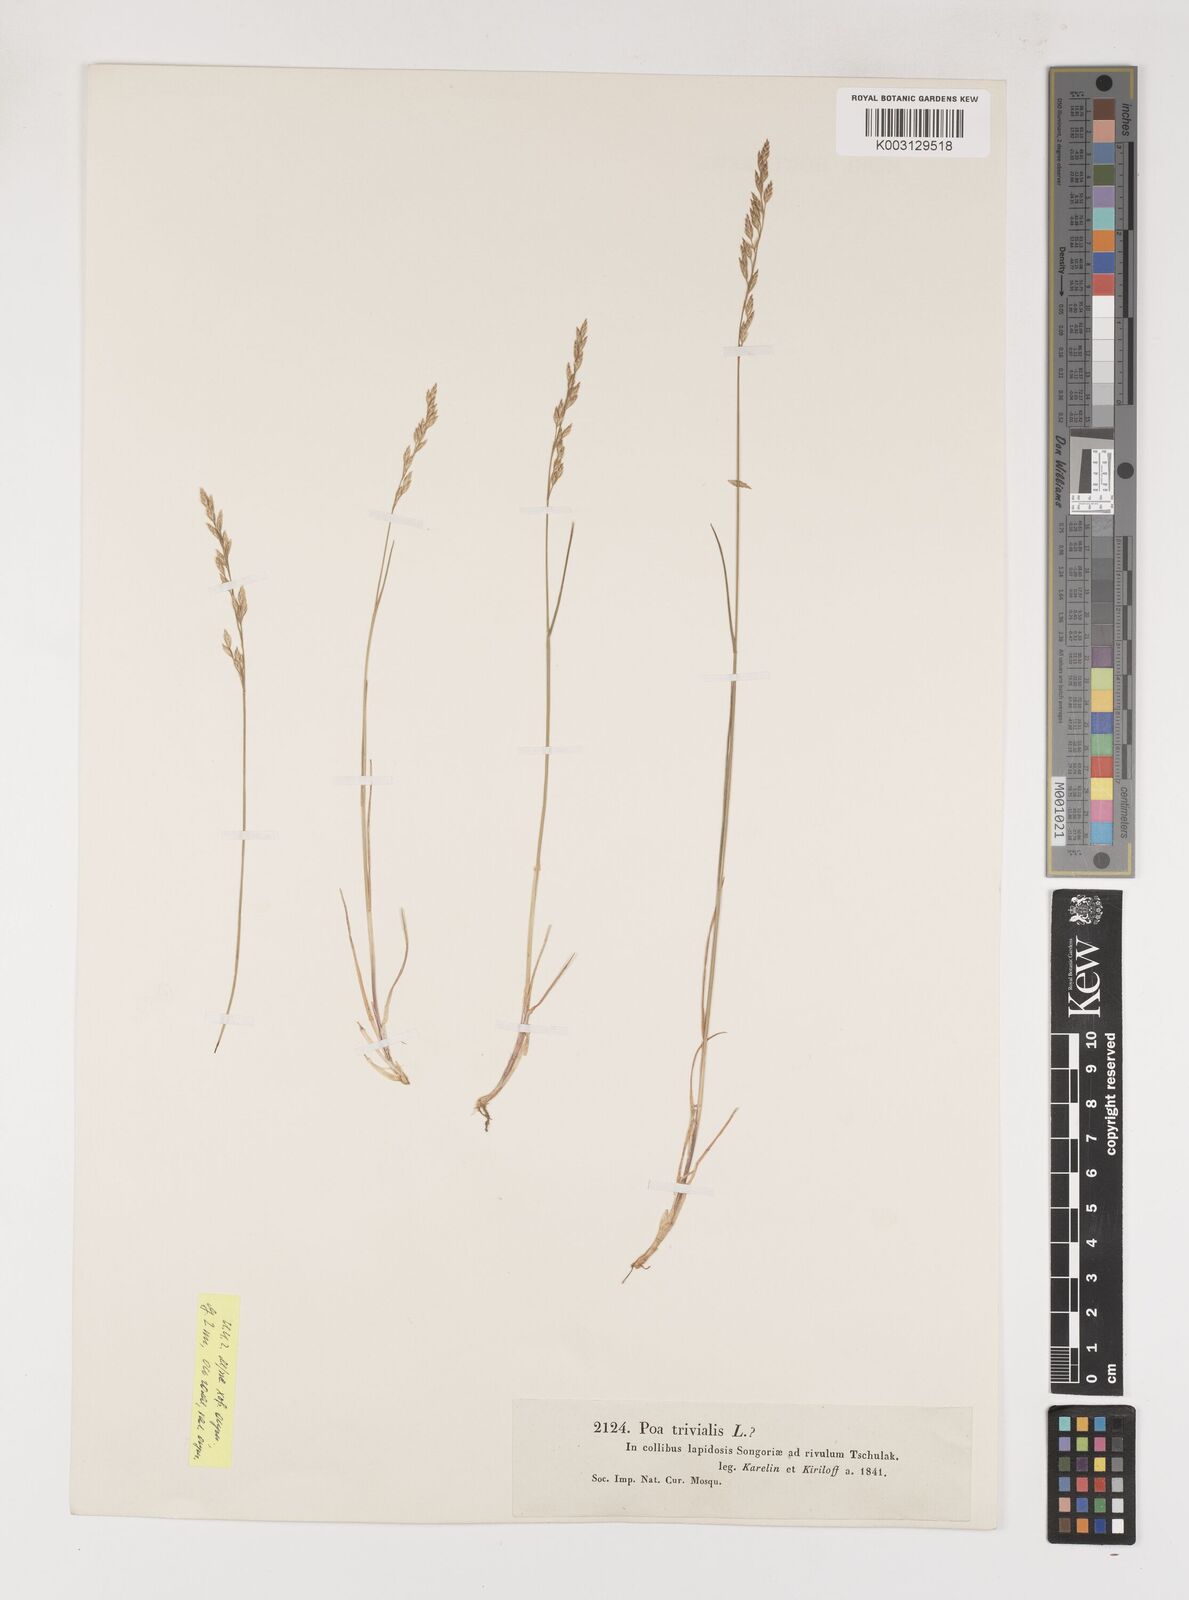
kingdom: Plantae
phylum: Tracheophyta
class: Liliopsida
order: Poales
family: Poaceae
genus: Poa
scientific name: Poa
